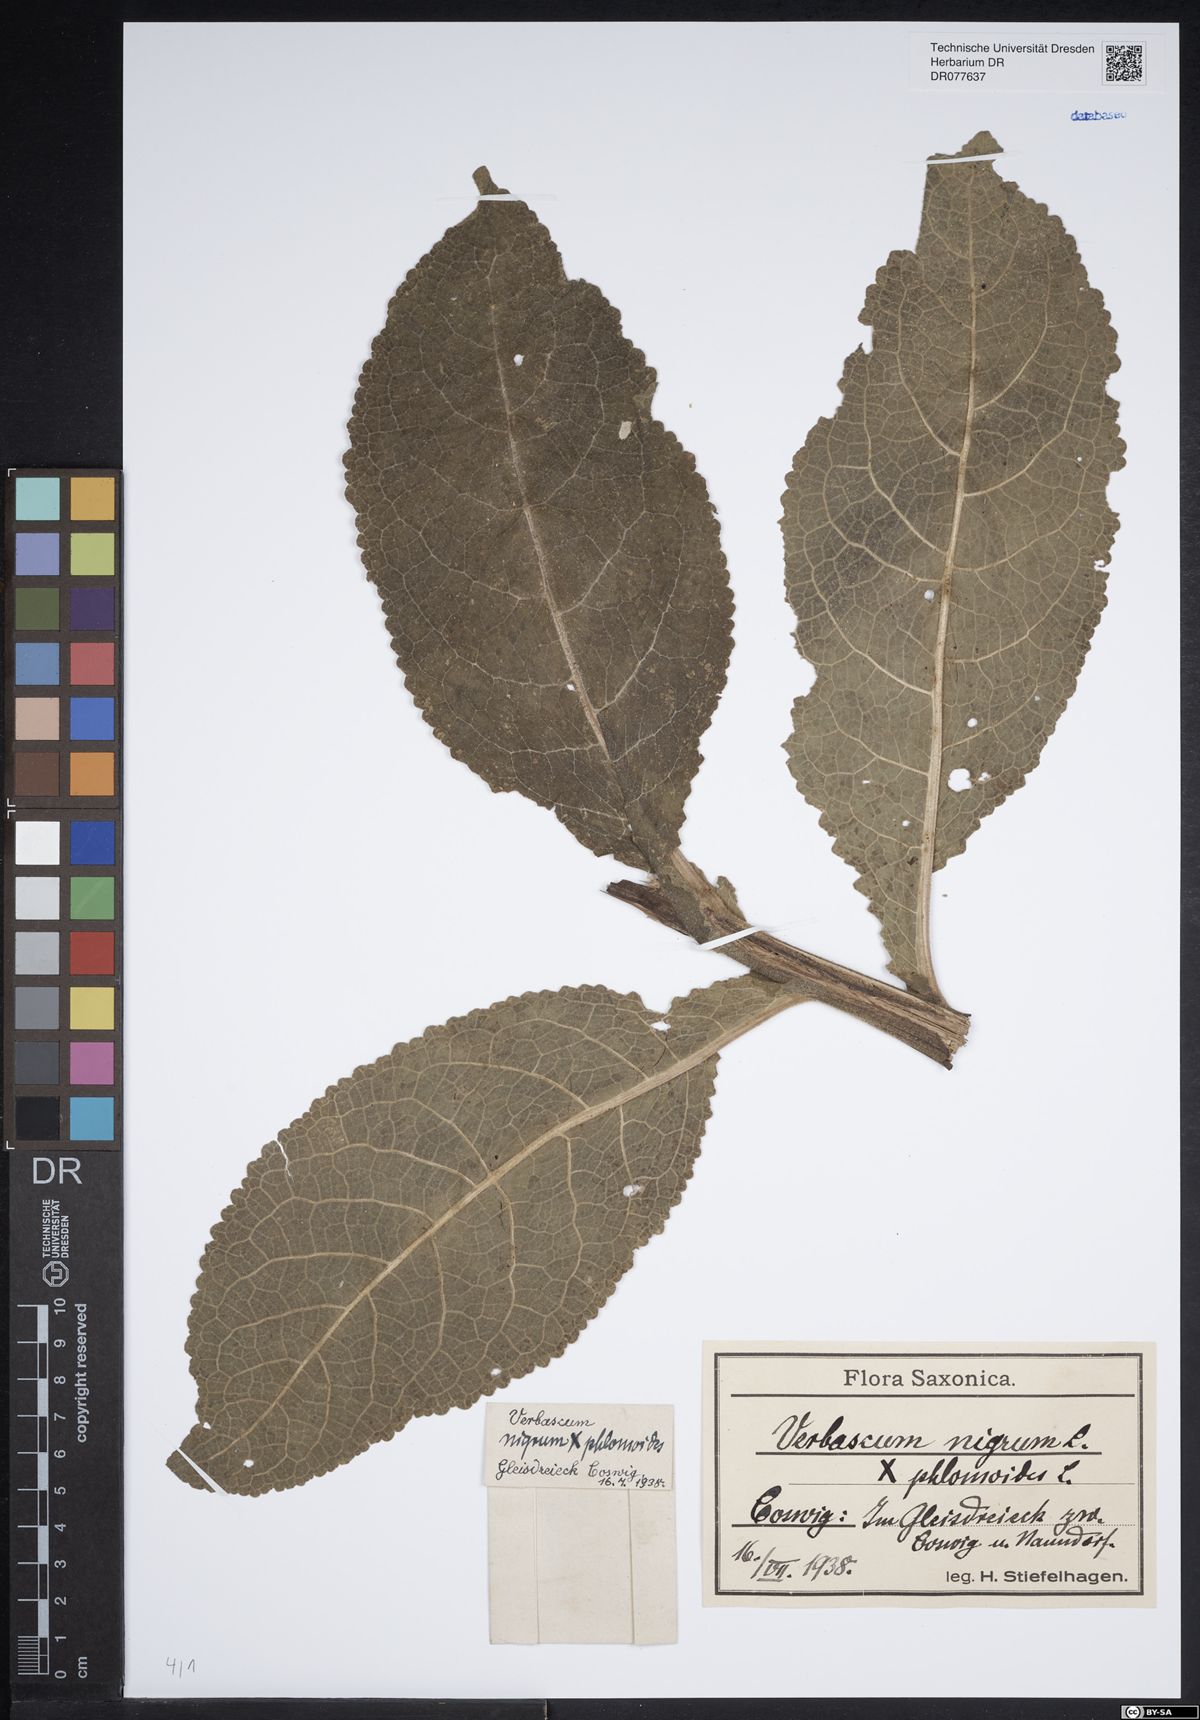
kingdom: Plantae
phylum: Tracheophyta
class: Magnoliopsida
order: Lamiales
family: Scrophulariaceae
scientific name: Scrophulariaceae
